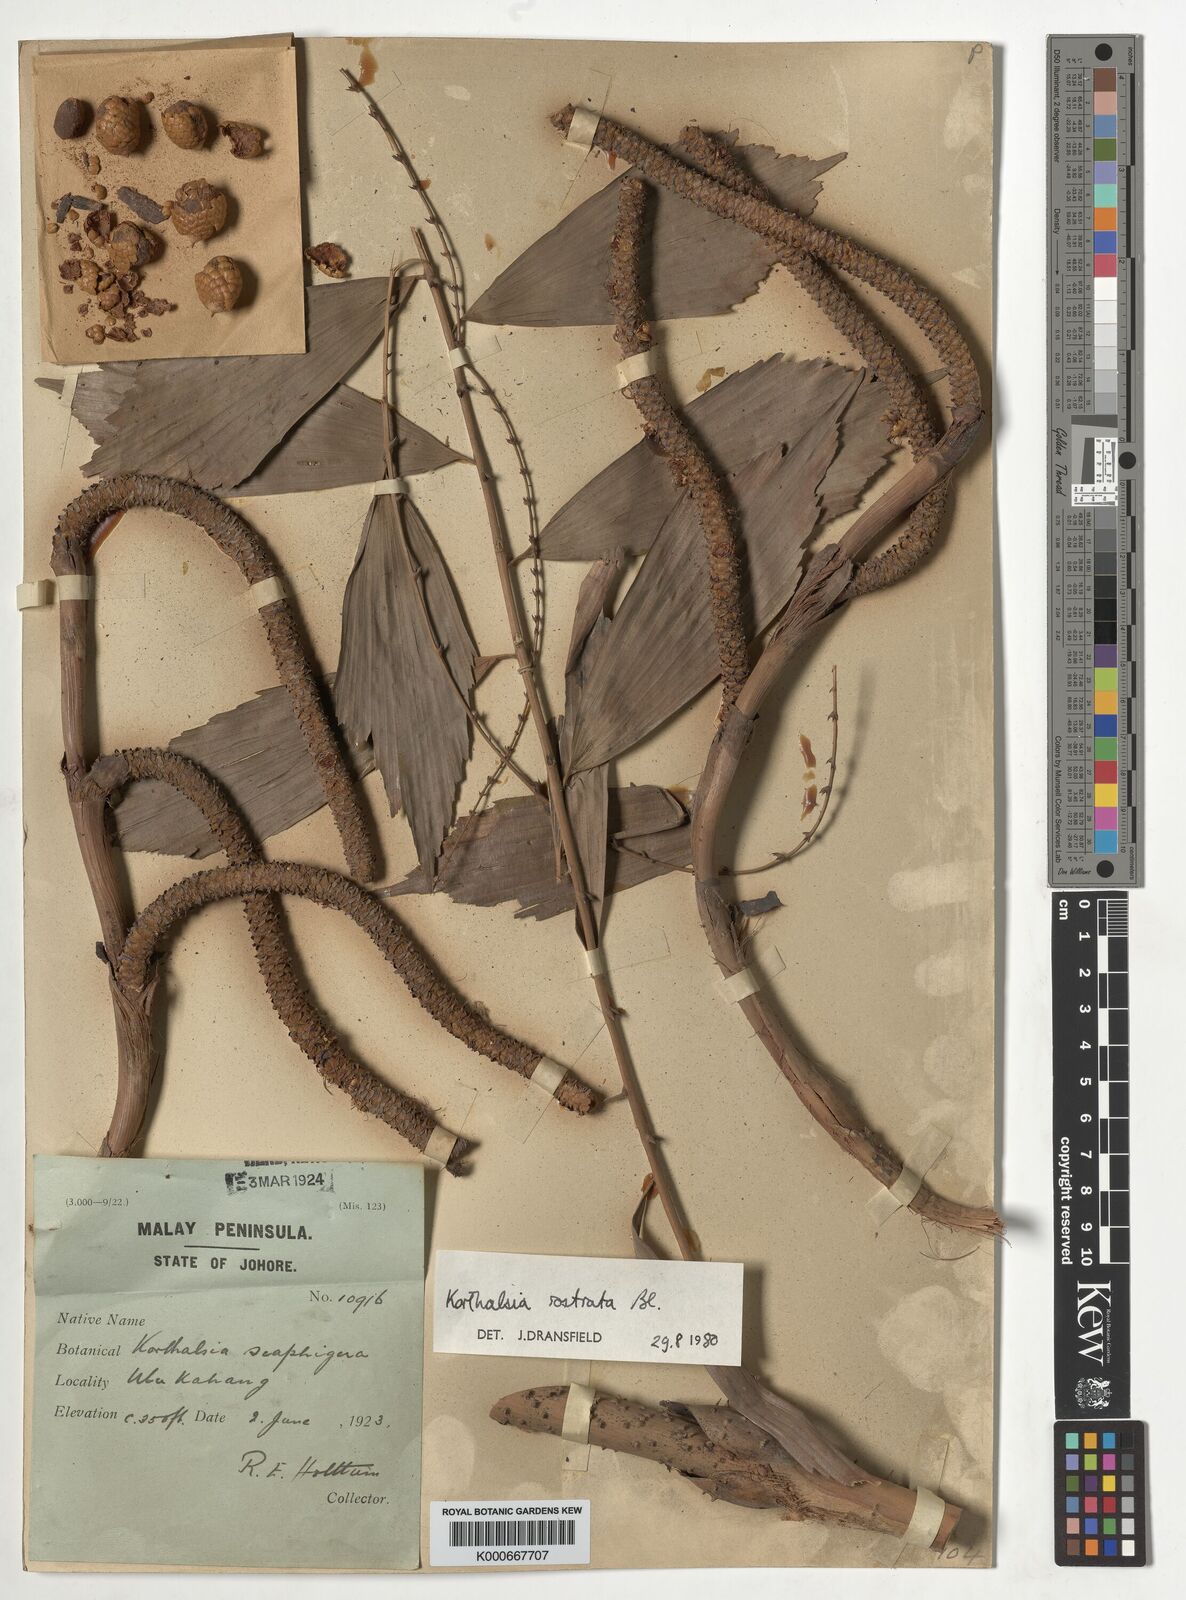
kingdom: Plantae
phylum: Tracheophyta
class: Liliopsida
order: Arecales
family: Arecaceae
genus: Korthalsia
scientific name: Korthalsia rostrata
